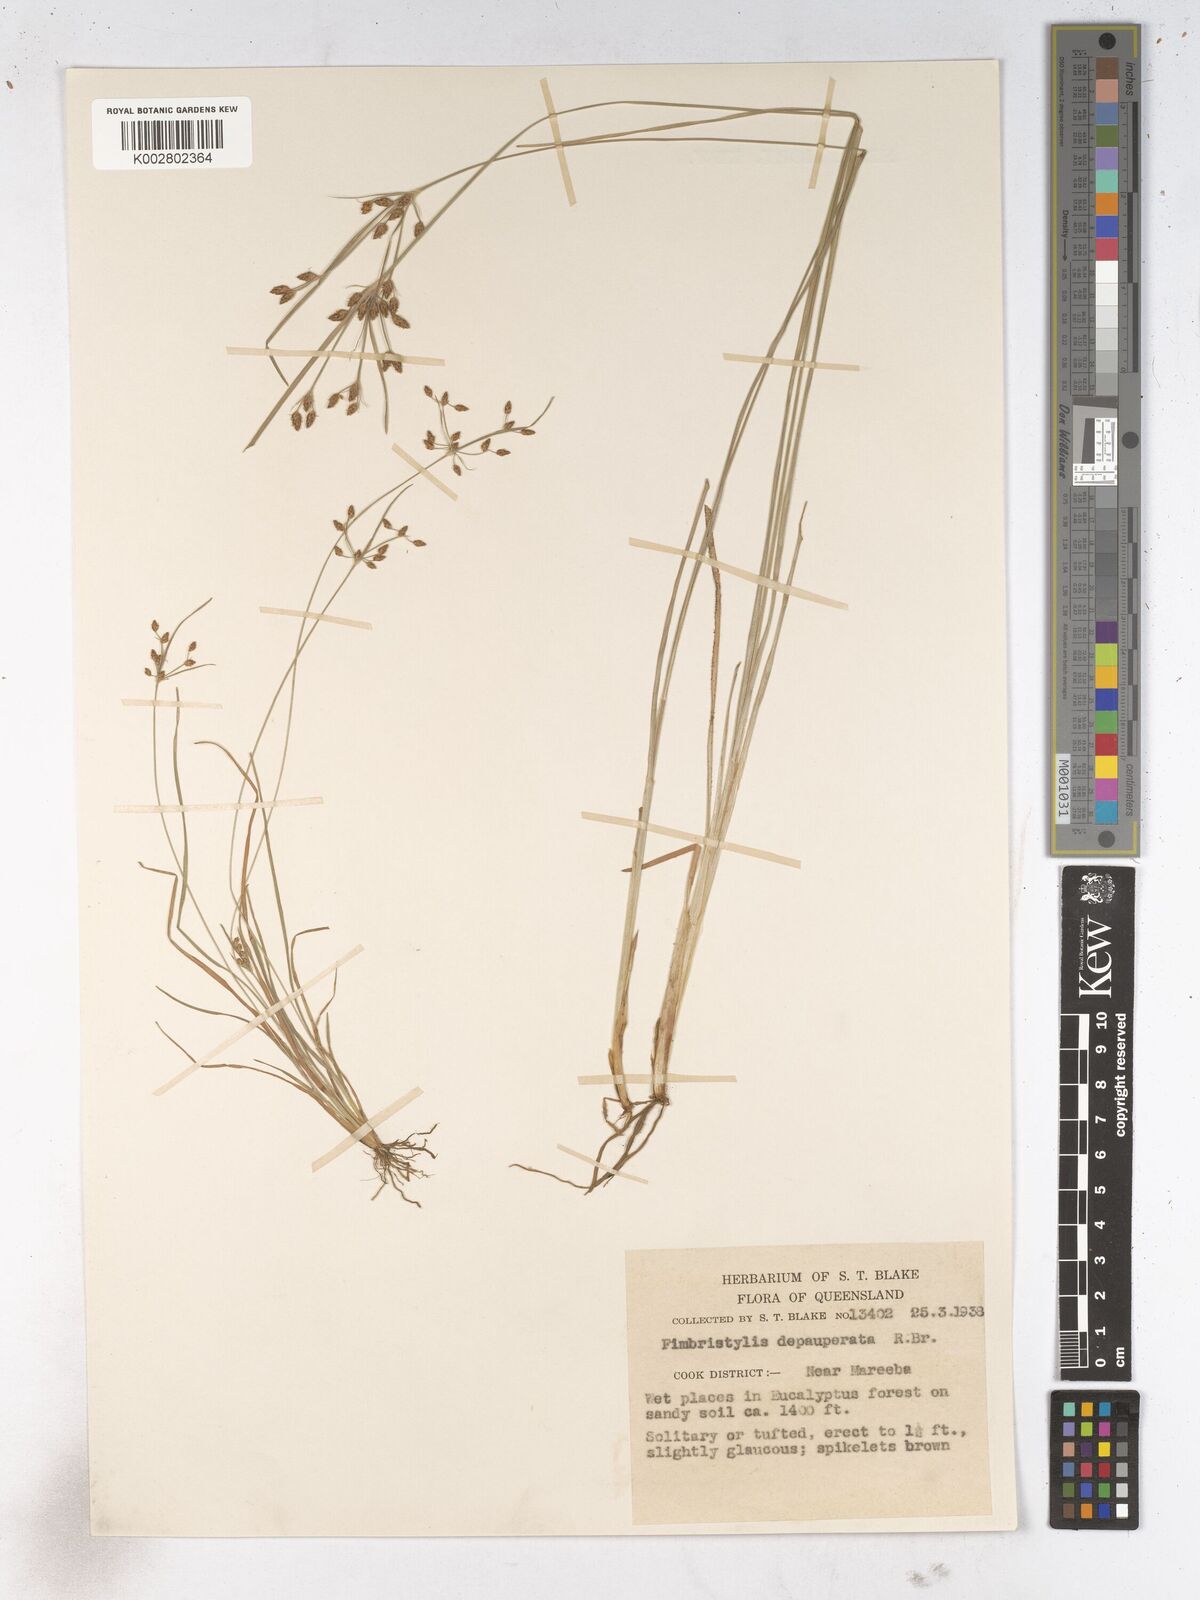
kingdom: Plantae
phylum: Tracheophyta
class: Liliopsida
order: Poales
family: Cyperaceae
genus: Fimbristylis
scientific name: Fimbristylis dichotoma
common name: Forked fimbry
